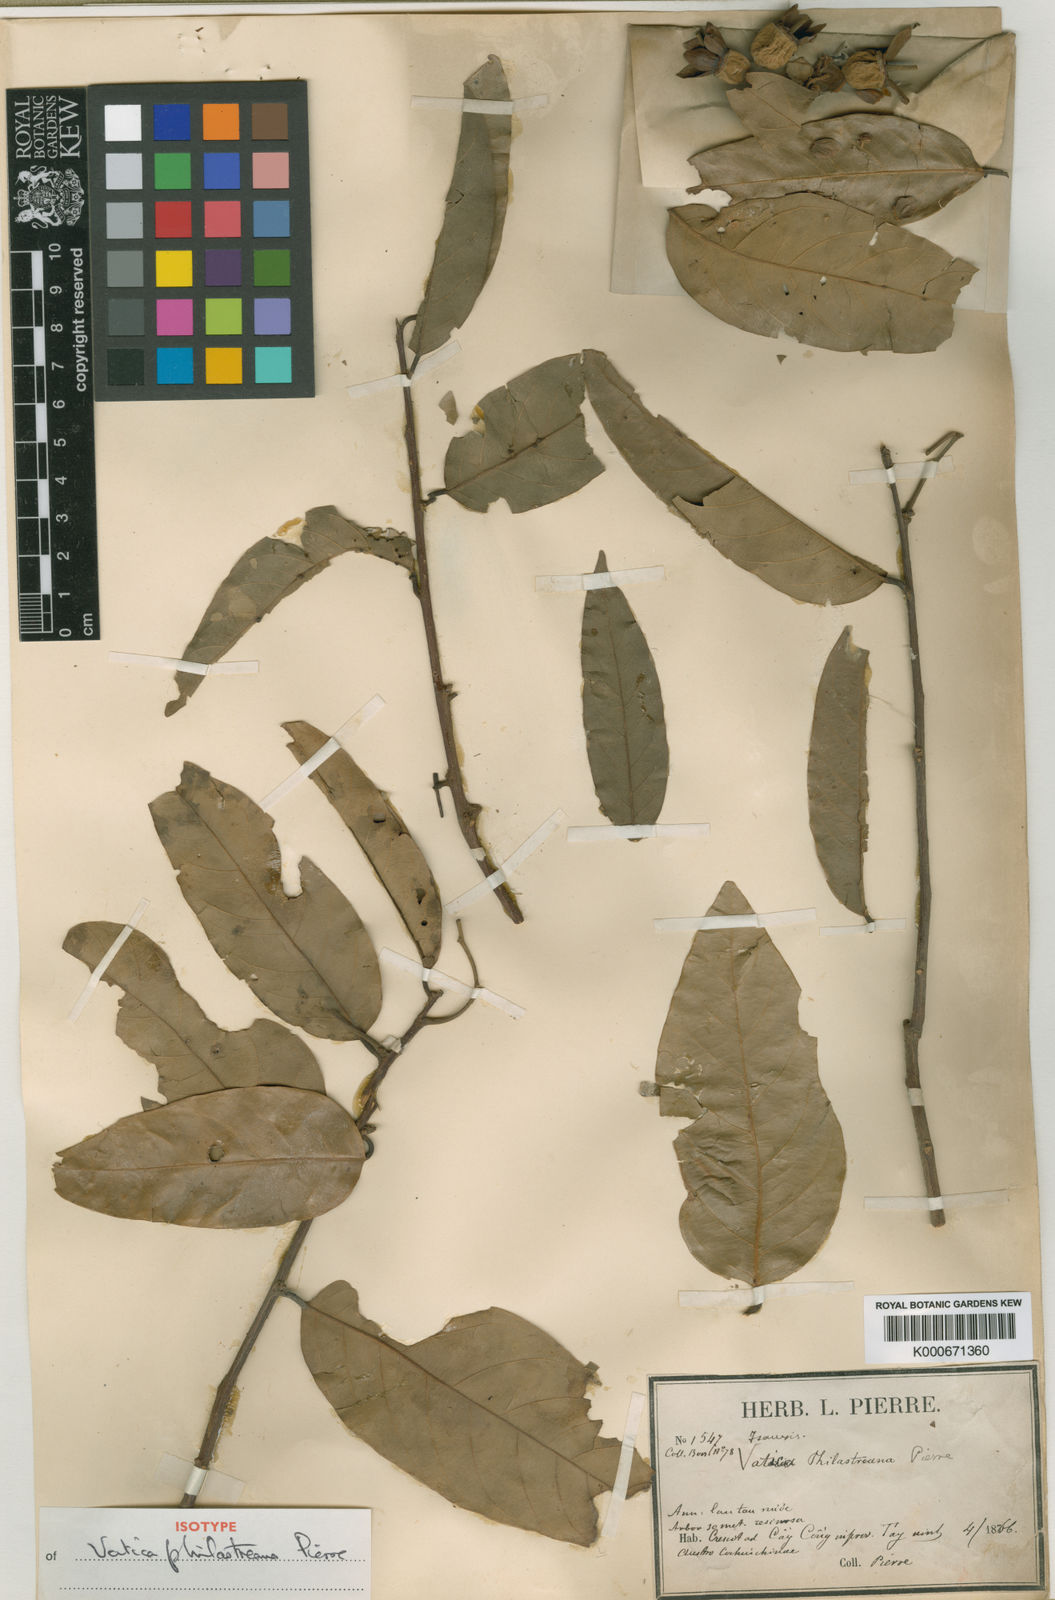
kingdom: Plantae
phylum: Tracheophyta
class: Magnoliopsida
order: Malvales
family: Dipterocarpaceae
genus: Vatica
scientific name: Vatica philastreana
